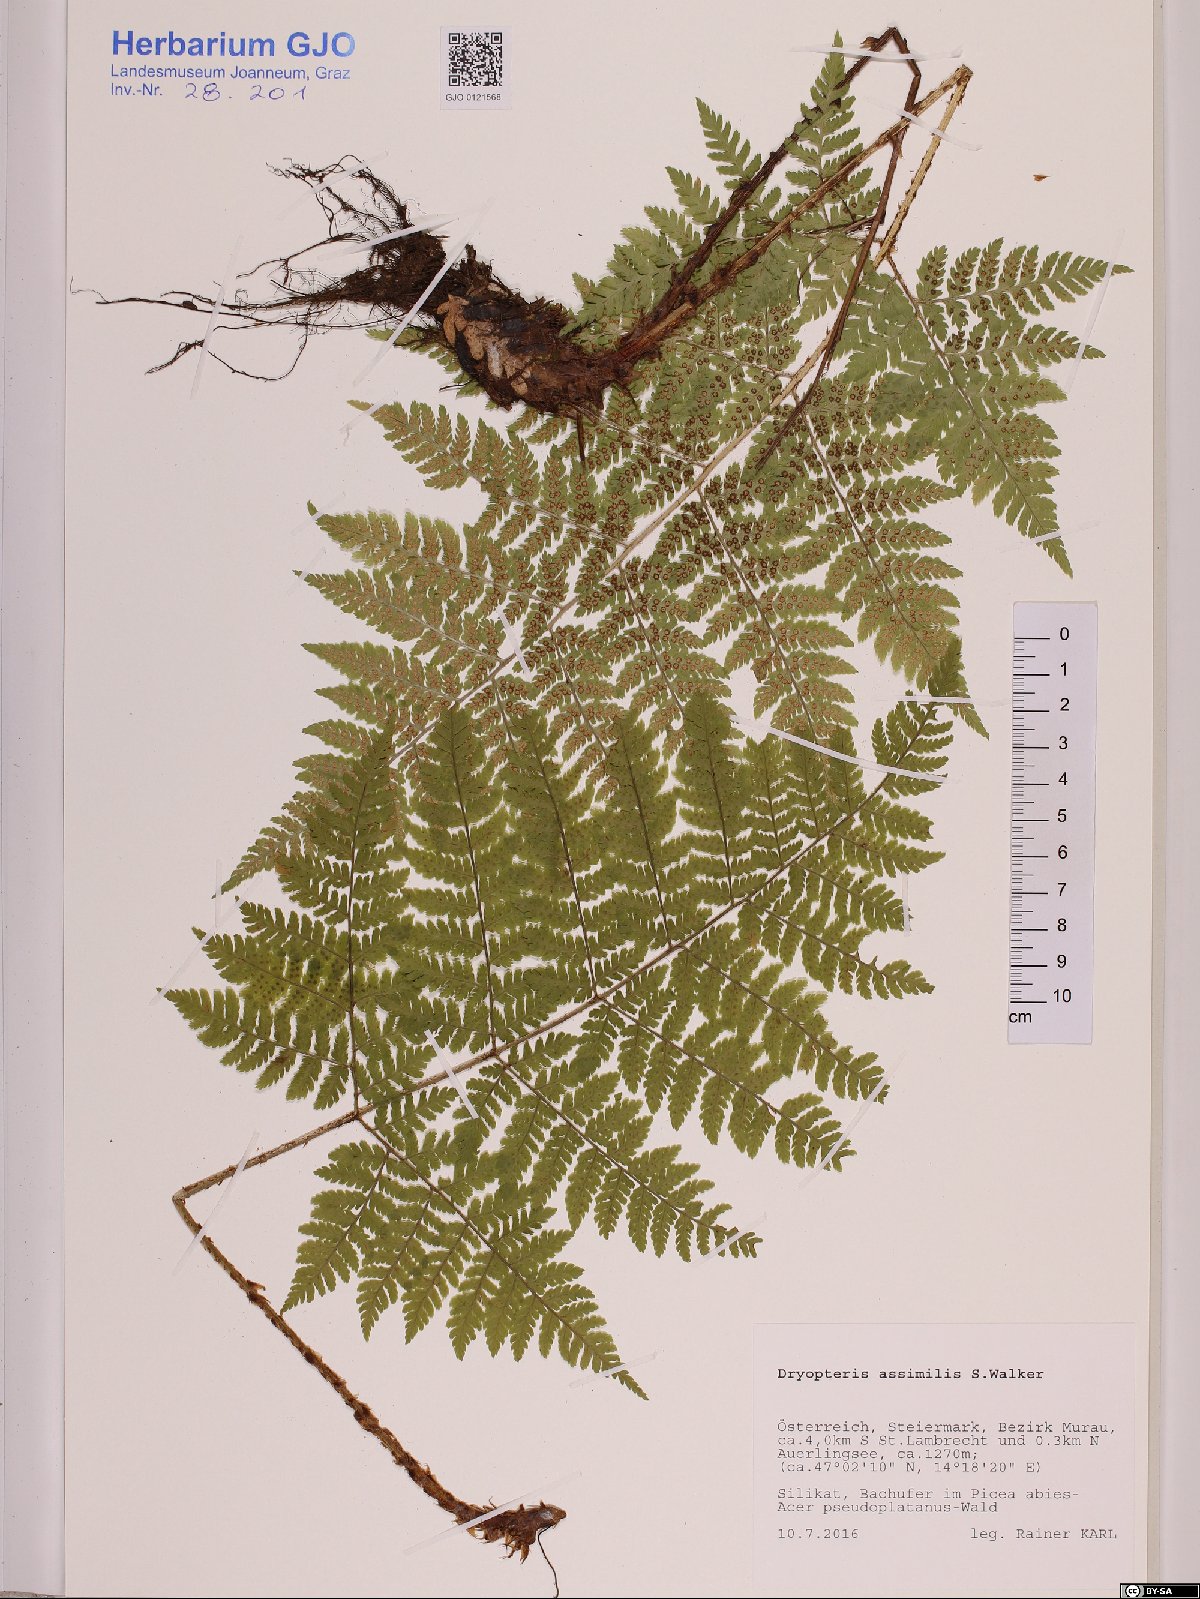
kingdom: Plantae
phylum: Tracheophyta
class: Polypodiopsida
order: Polypodiales
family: Dryopteridaceae
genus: Dryopteris
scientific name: Dryopteris expansa
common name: Northern buckler fern
